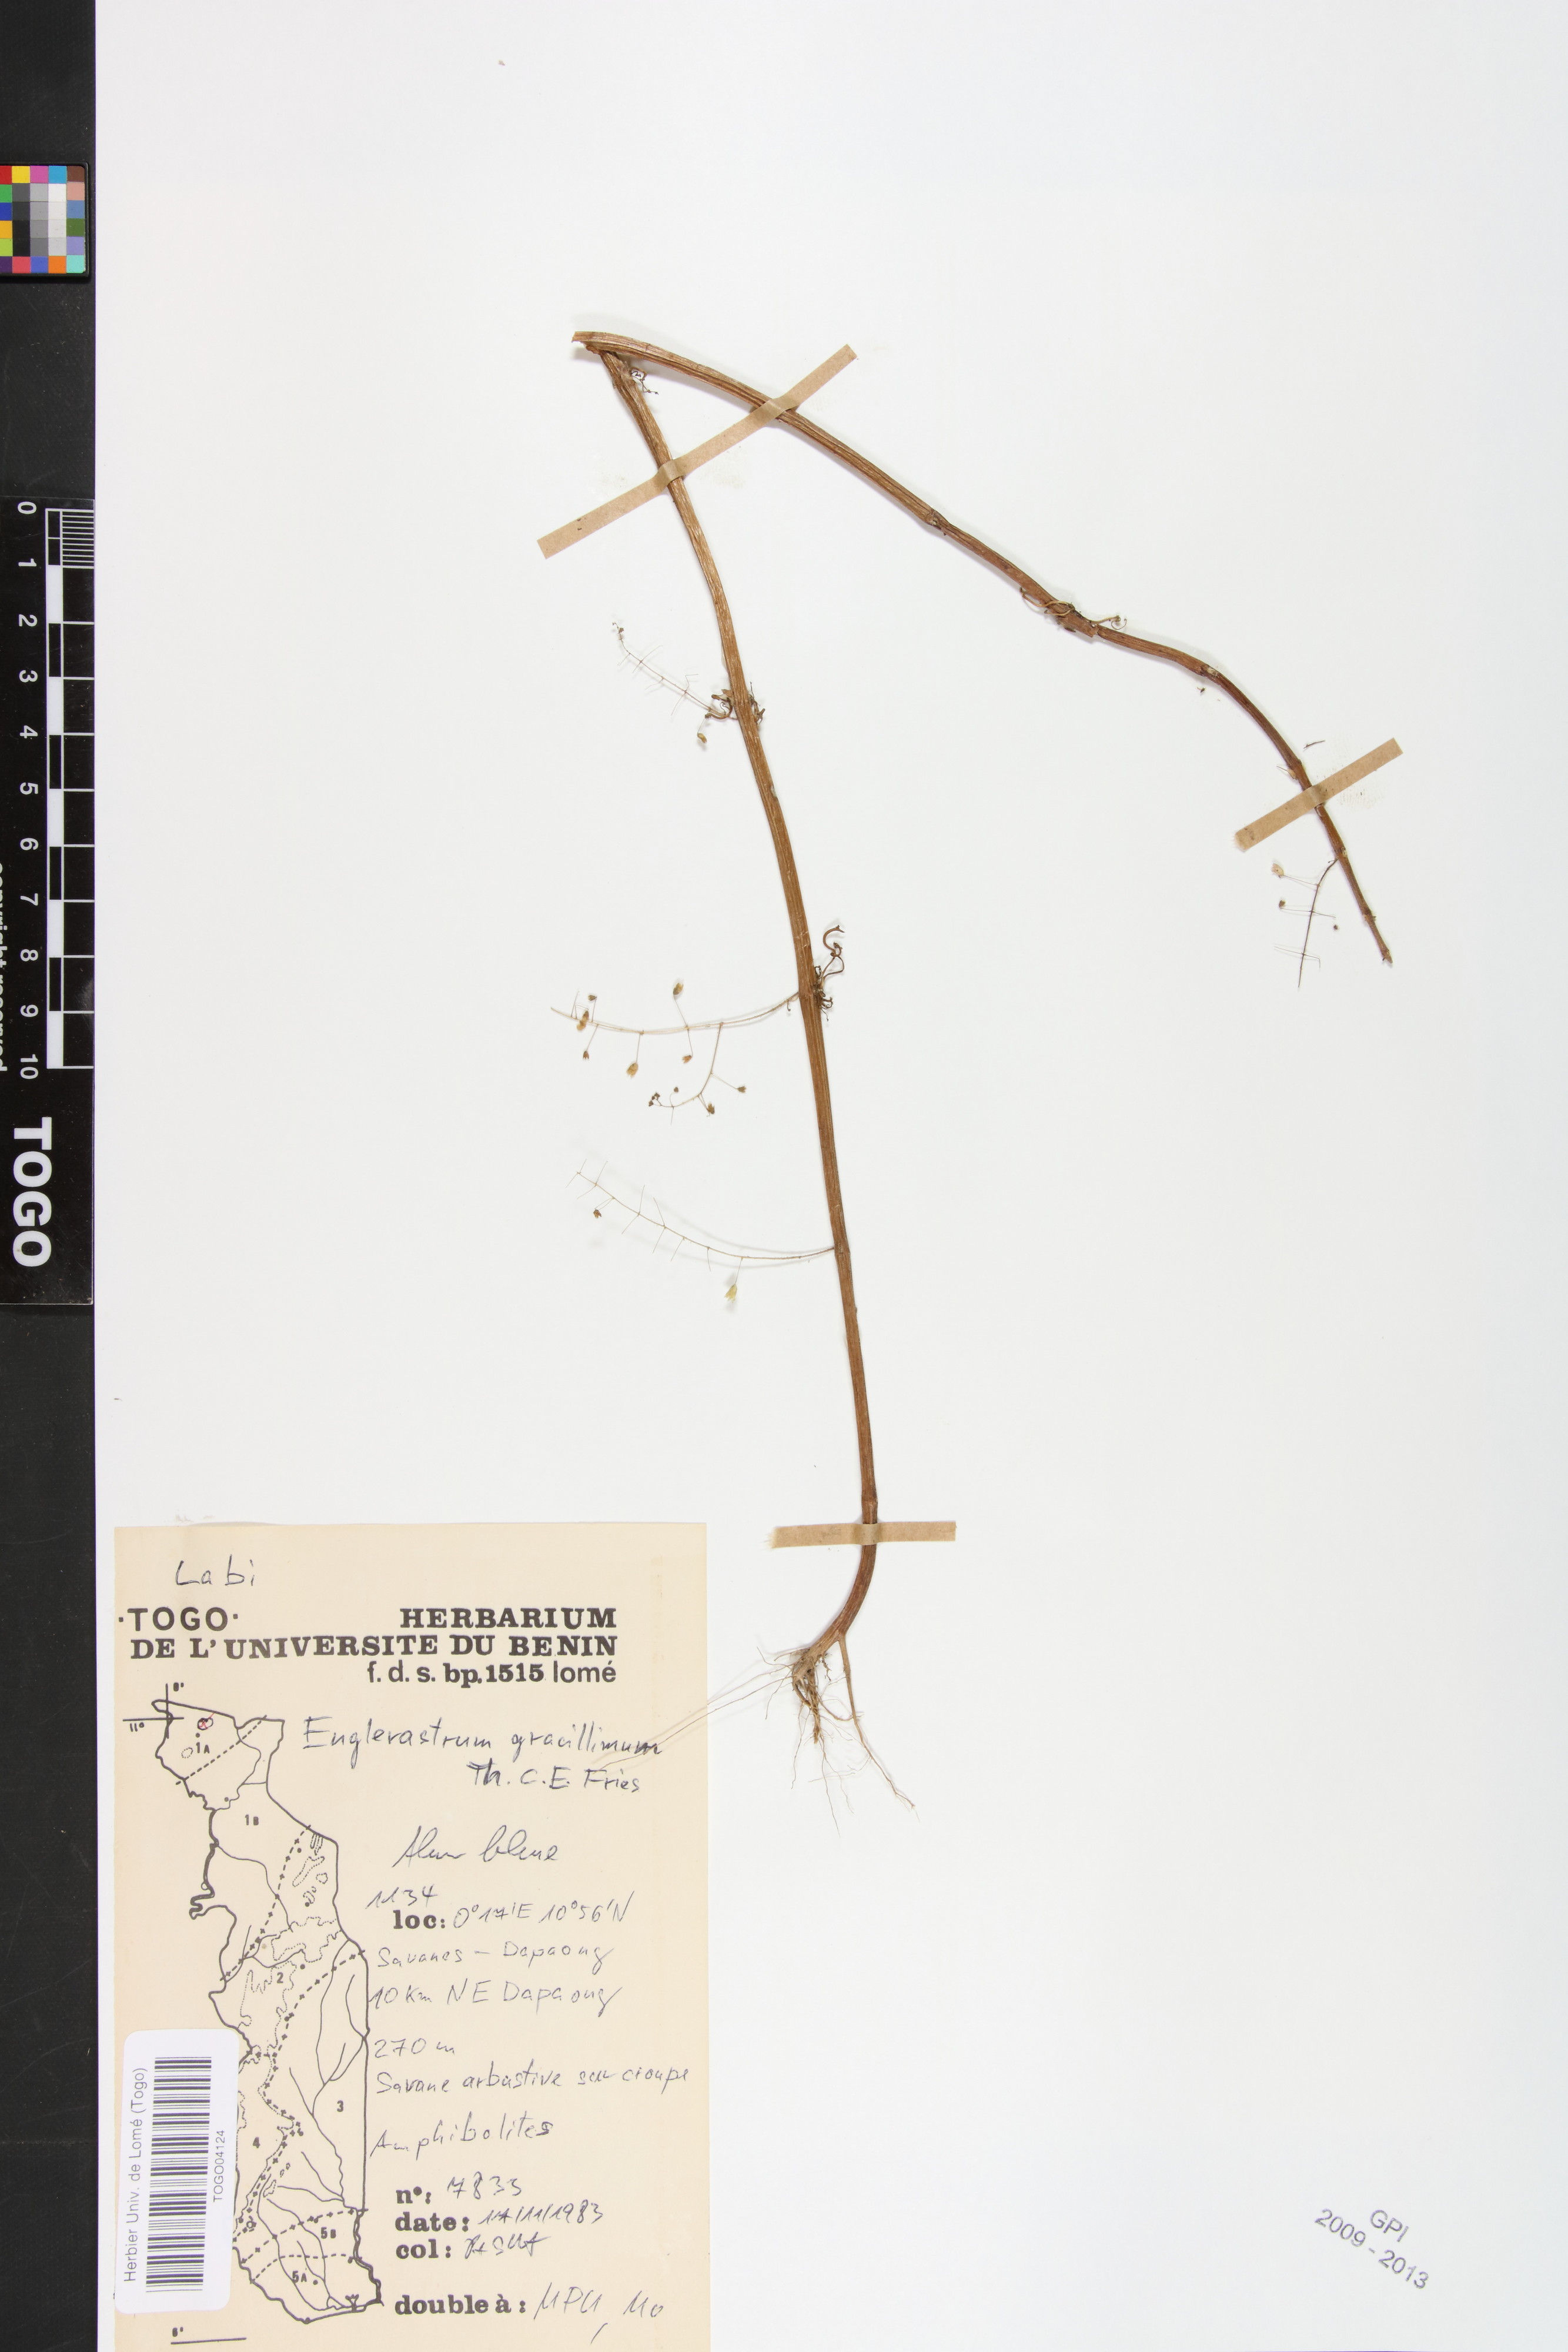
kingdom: Plantae
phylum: Tracheophyta
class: Magnoliopsida
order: Lamiales
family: Lamiaceae
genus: Coleus
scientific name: Coleus gracillimus
